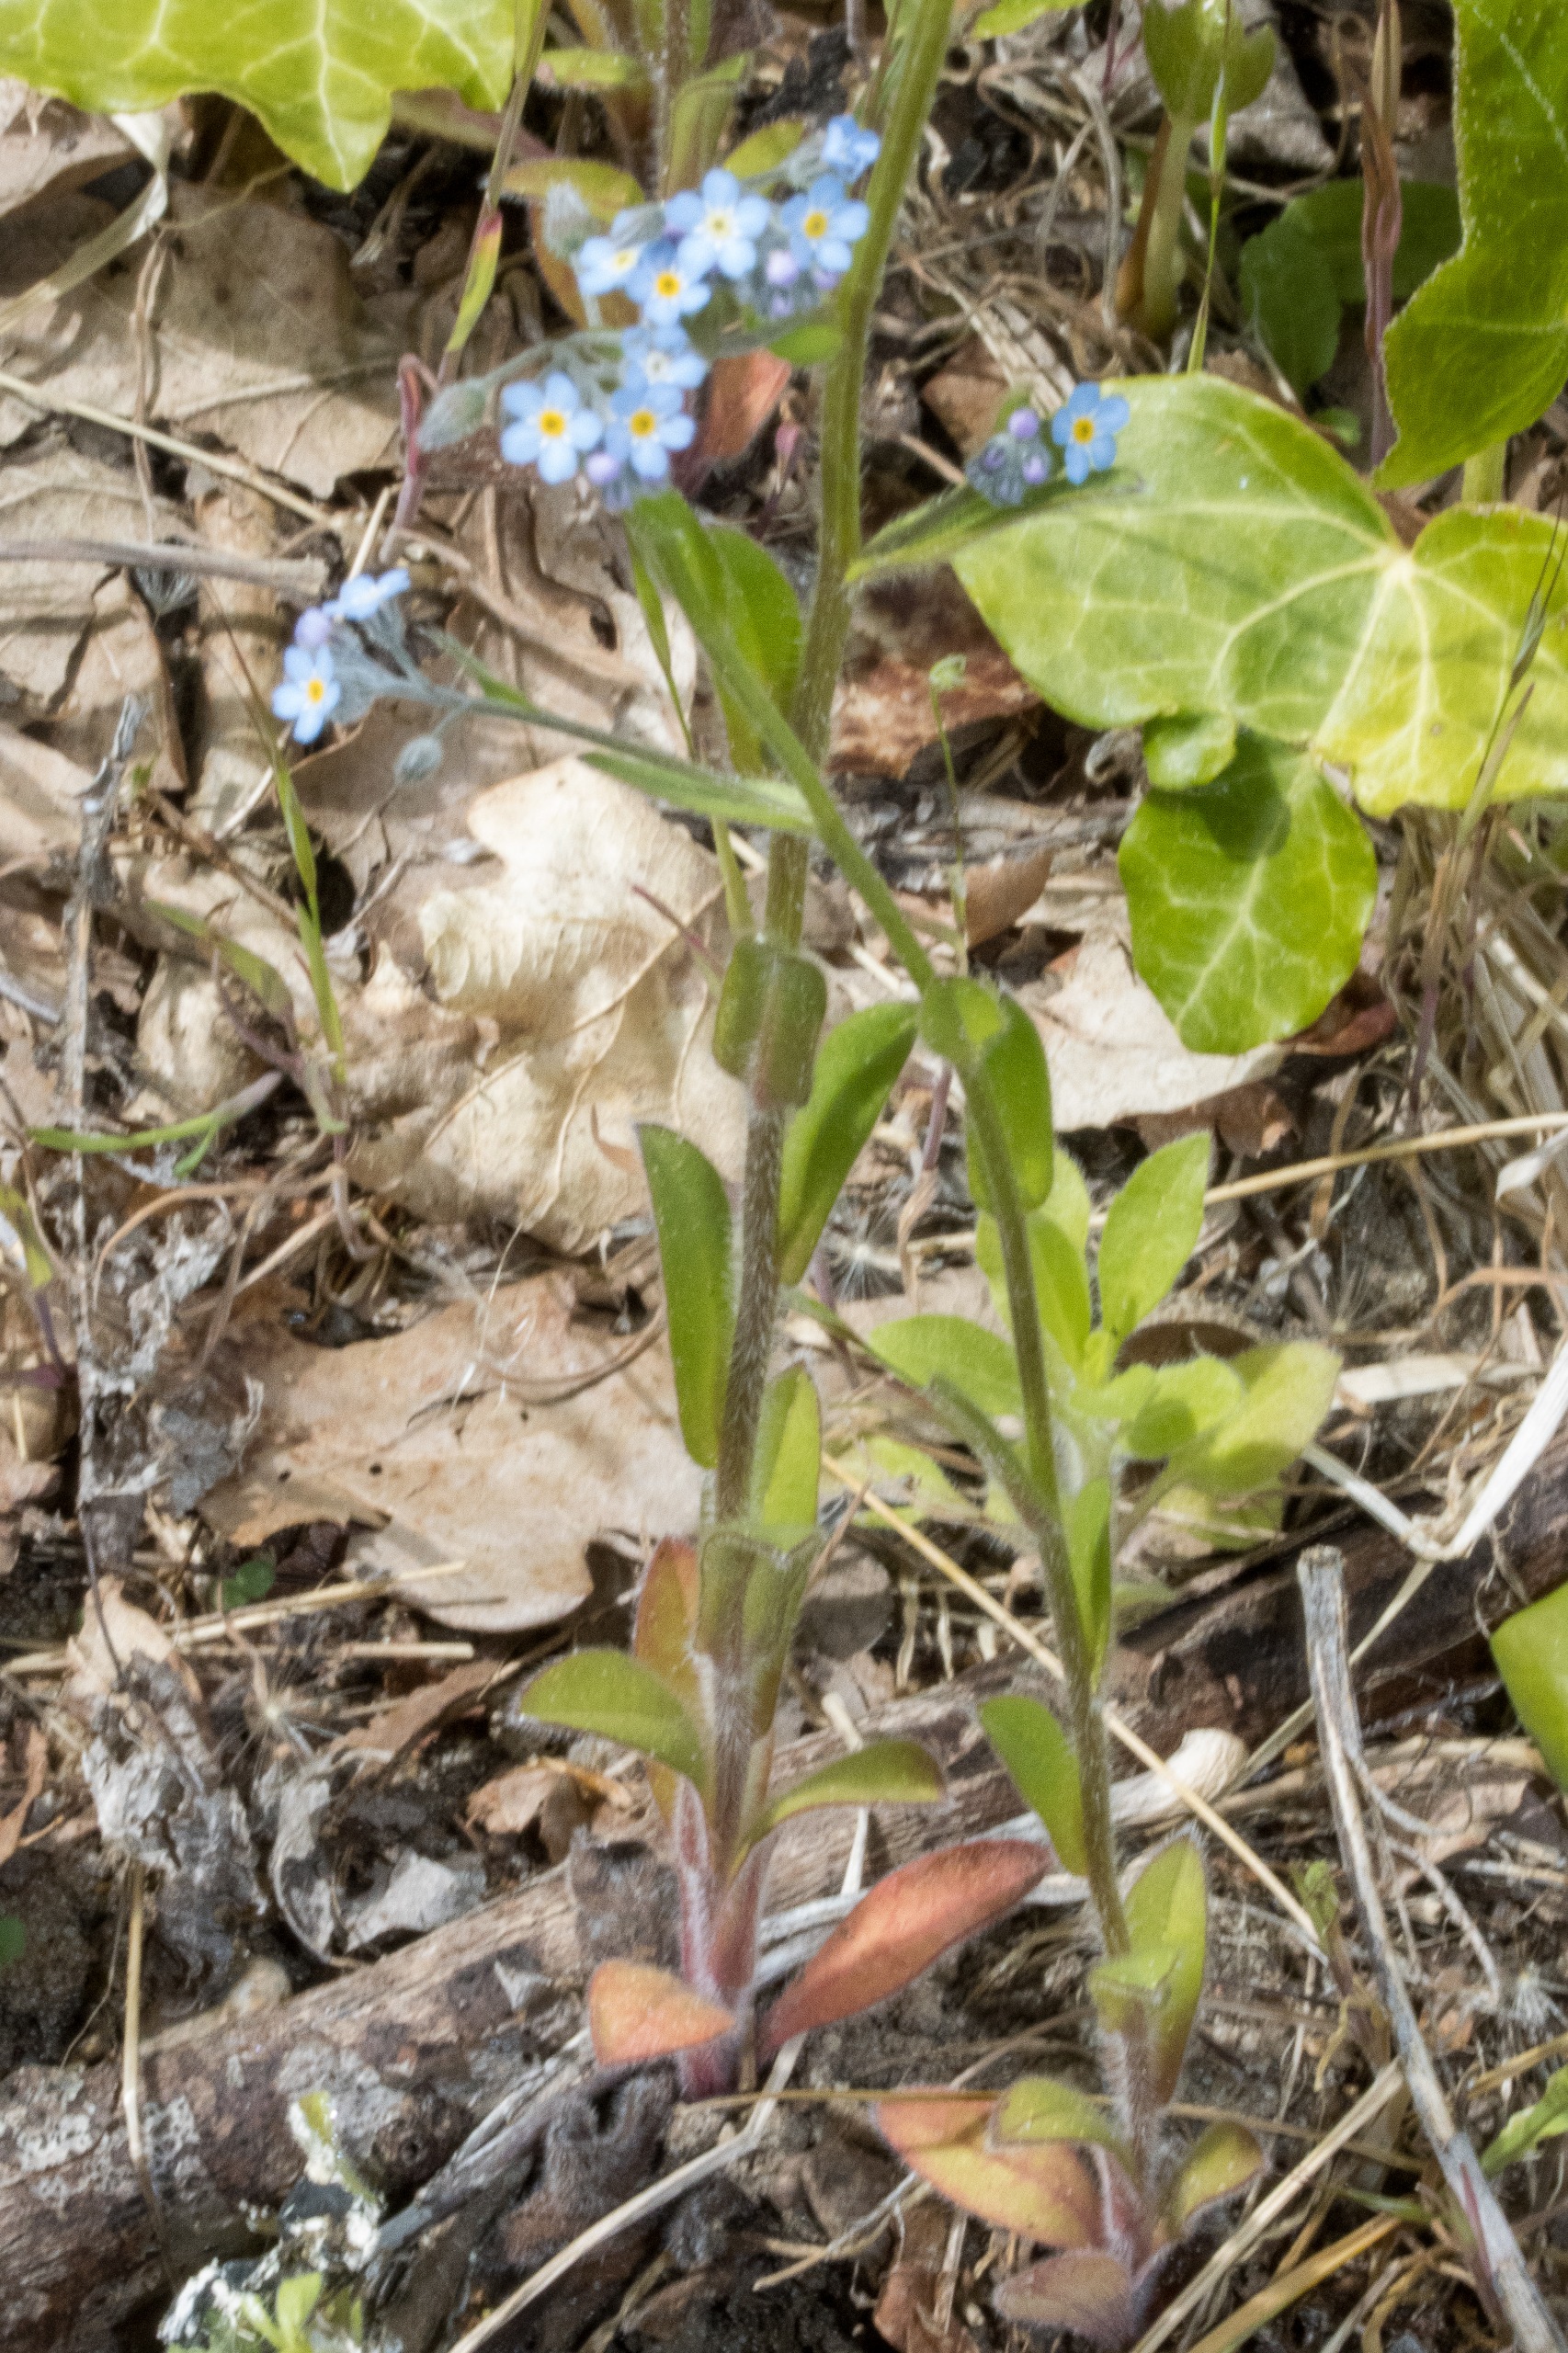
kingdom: Plantae
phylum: Tracheophyta
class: Magnoliopsida
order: Boraginales
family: Boraginaceae
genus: Myosotis
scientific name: Myosotis arvensis
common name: Mark-forglemmigej
